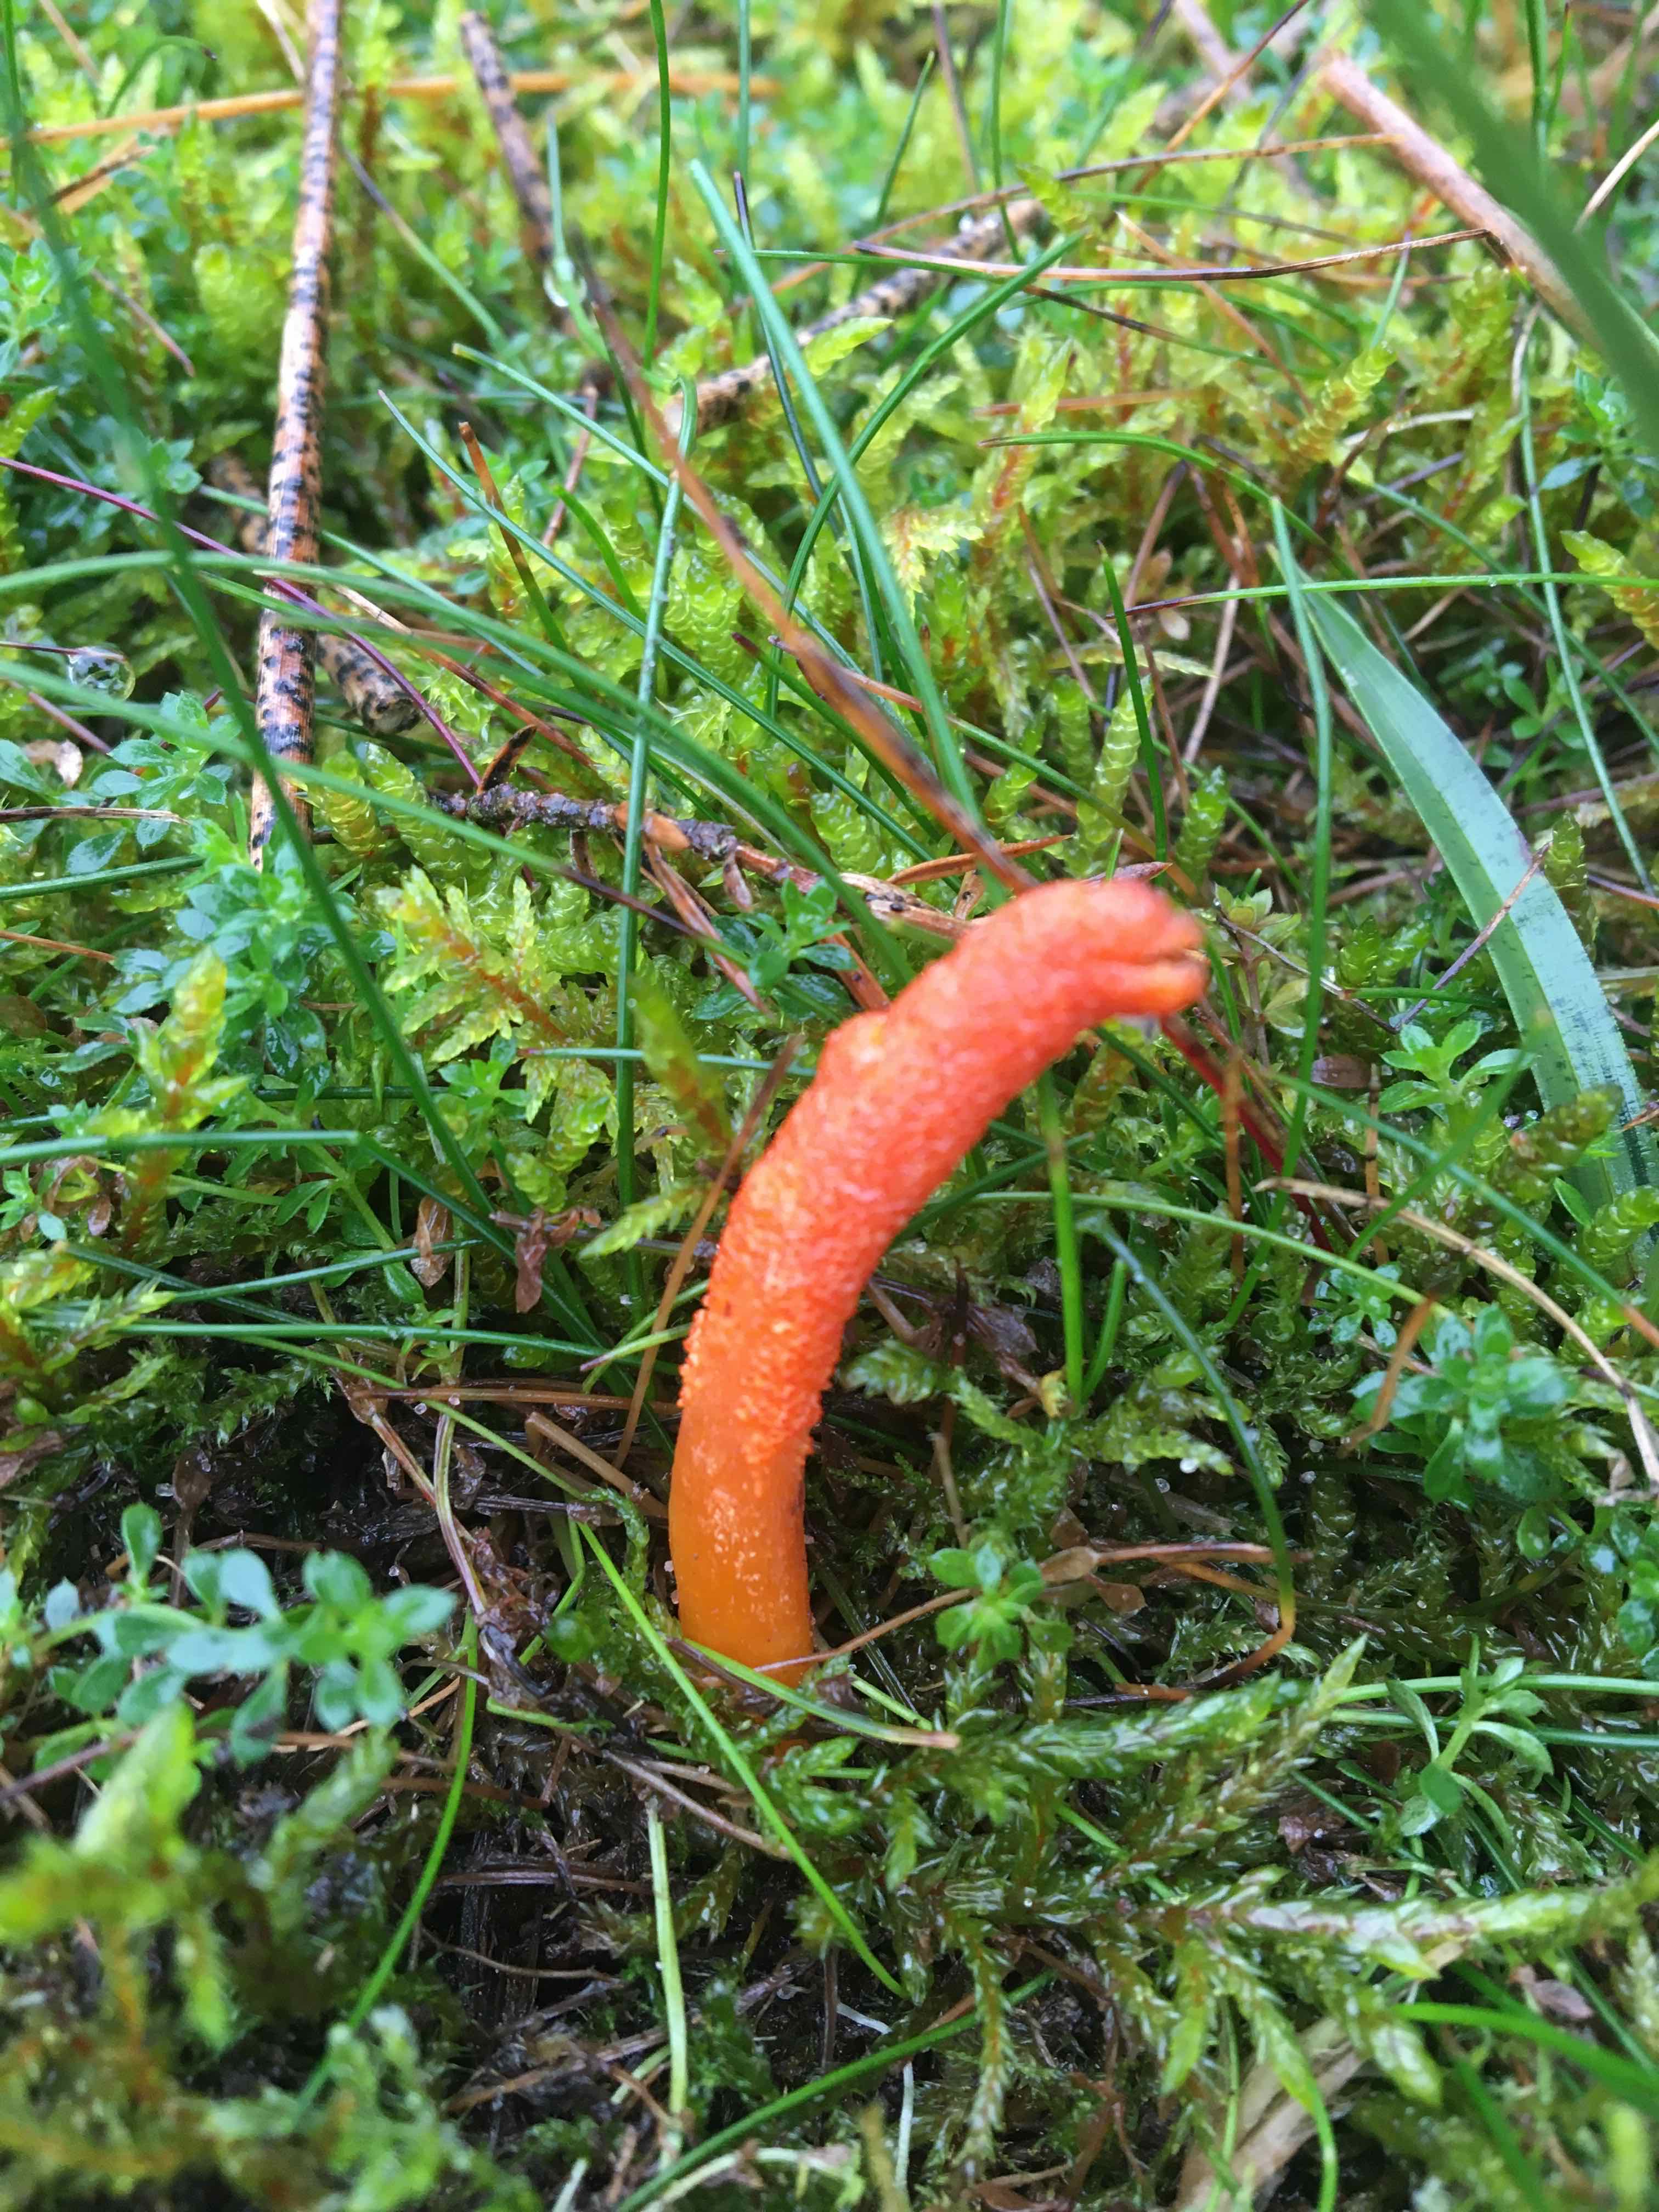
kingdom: Fungi
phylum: Ascomycota
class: Sordariomycetes
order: Hypocreales
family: Cordycipitaceae
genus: Cordyceps
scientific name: Cordyceps militaris
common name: puppe-snyltekølle
